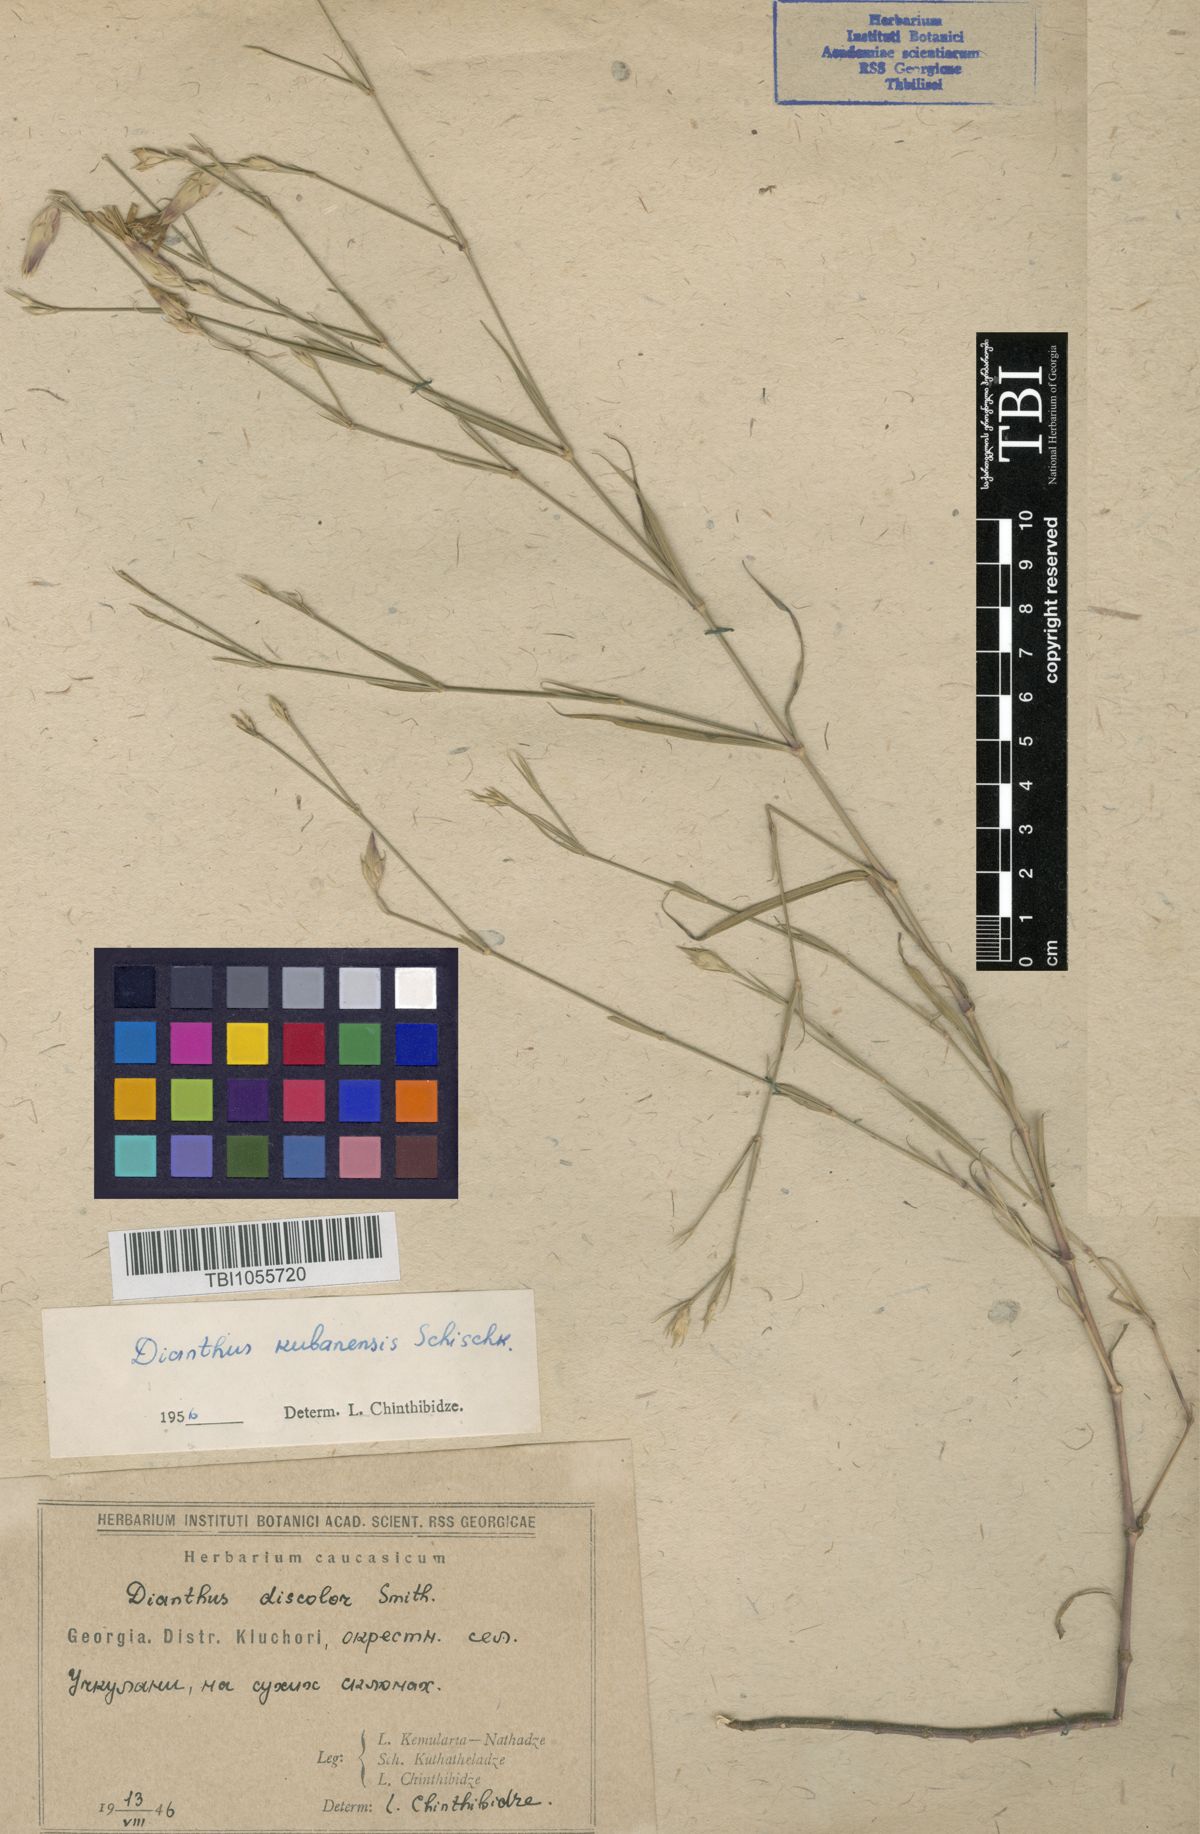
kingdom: Plantae
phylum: Tracheophyta
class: Magnoliopsida
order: Caryophyllales
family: Caryophyllaceae
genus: Dianthus
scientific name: Dianthus
